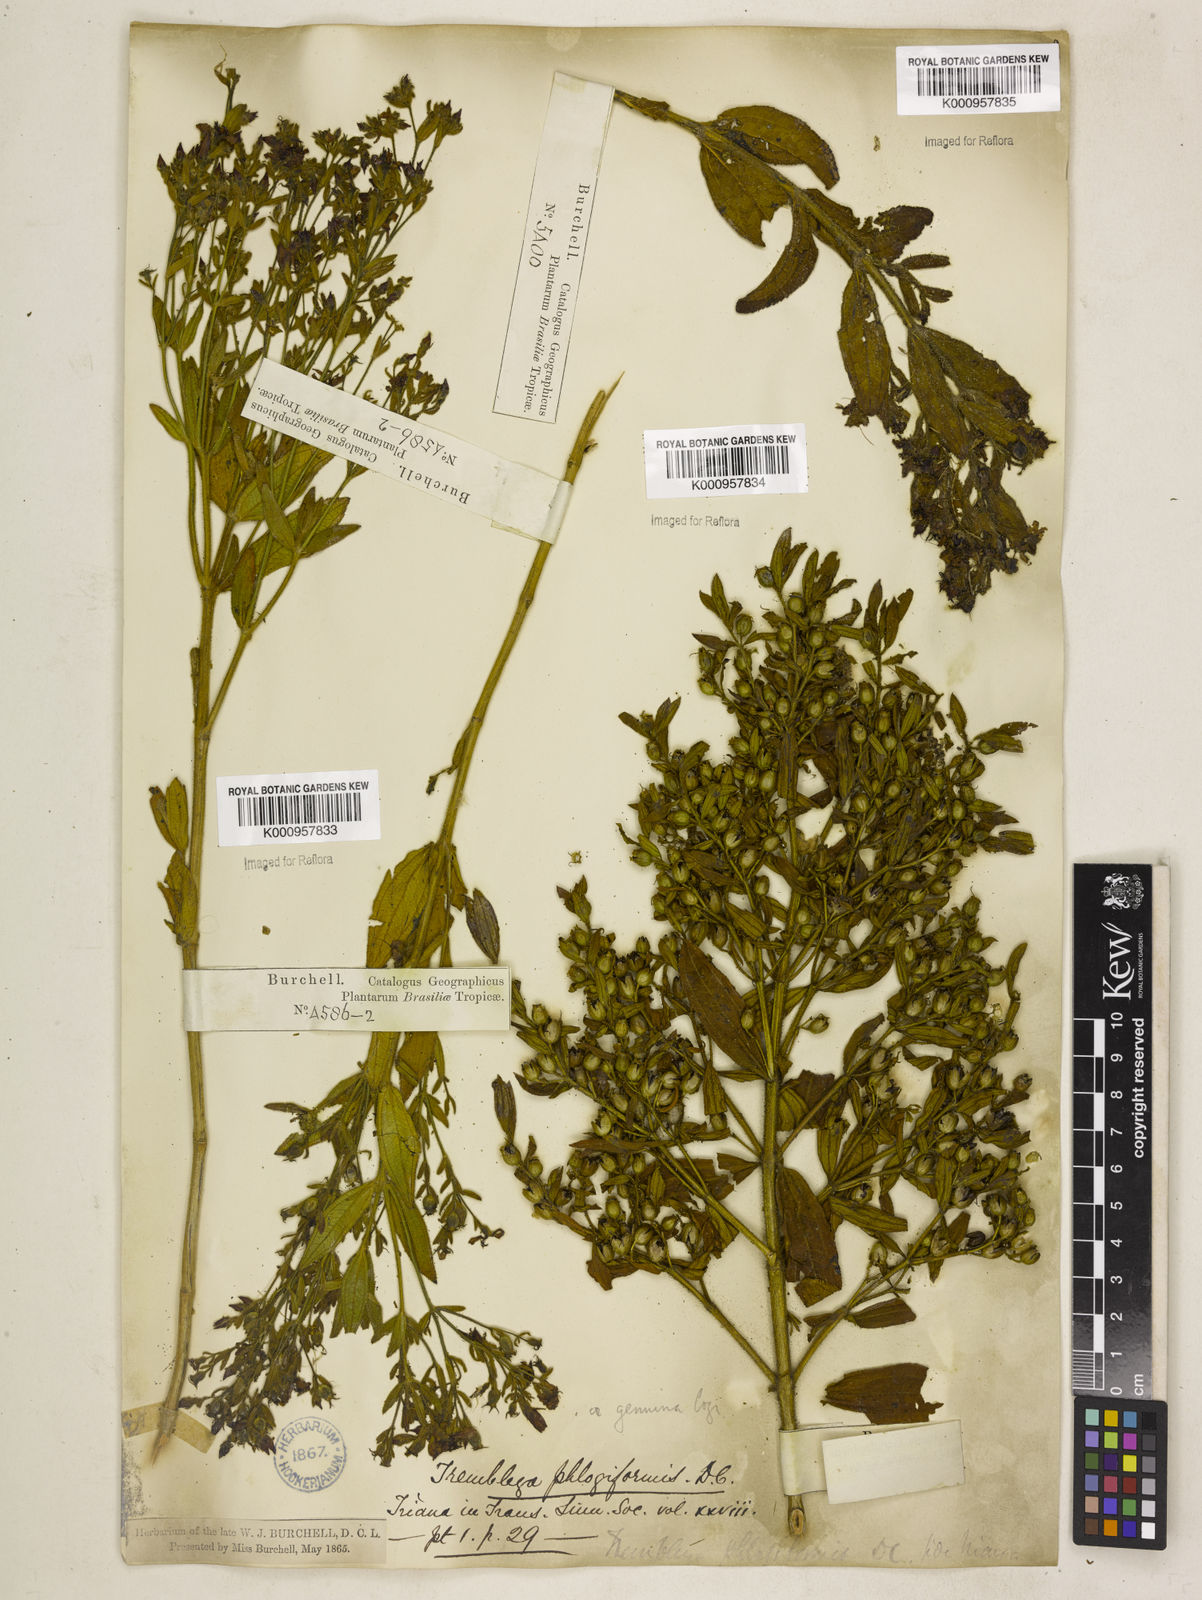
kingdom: Plantae
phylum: Tracheophyta
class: Magnoliopsida
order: Myrtales
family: Melastomataceae
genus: Microlicia
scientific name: Microlicia phlogiformis
